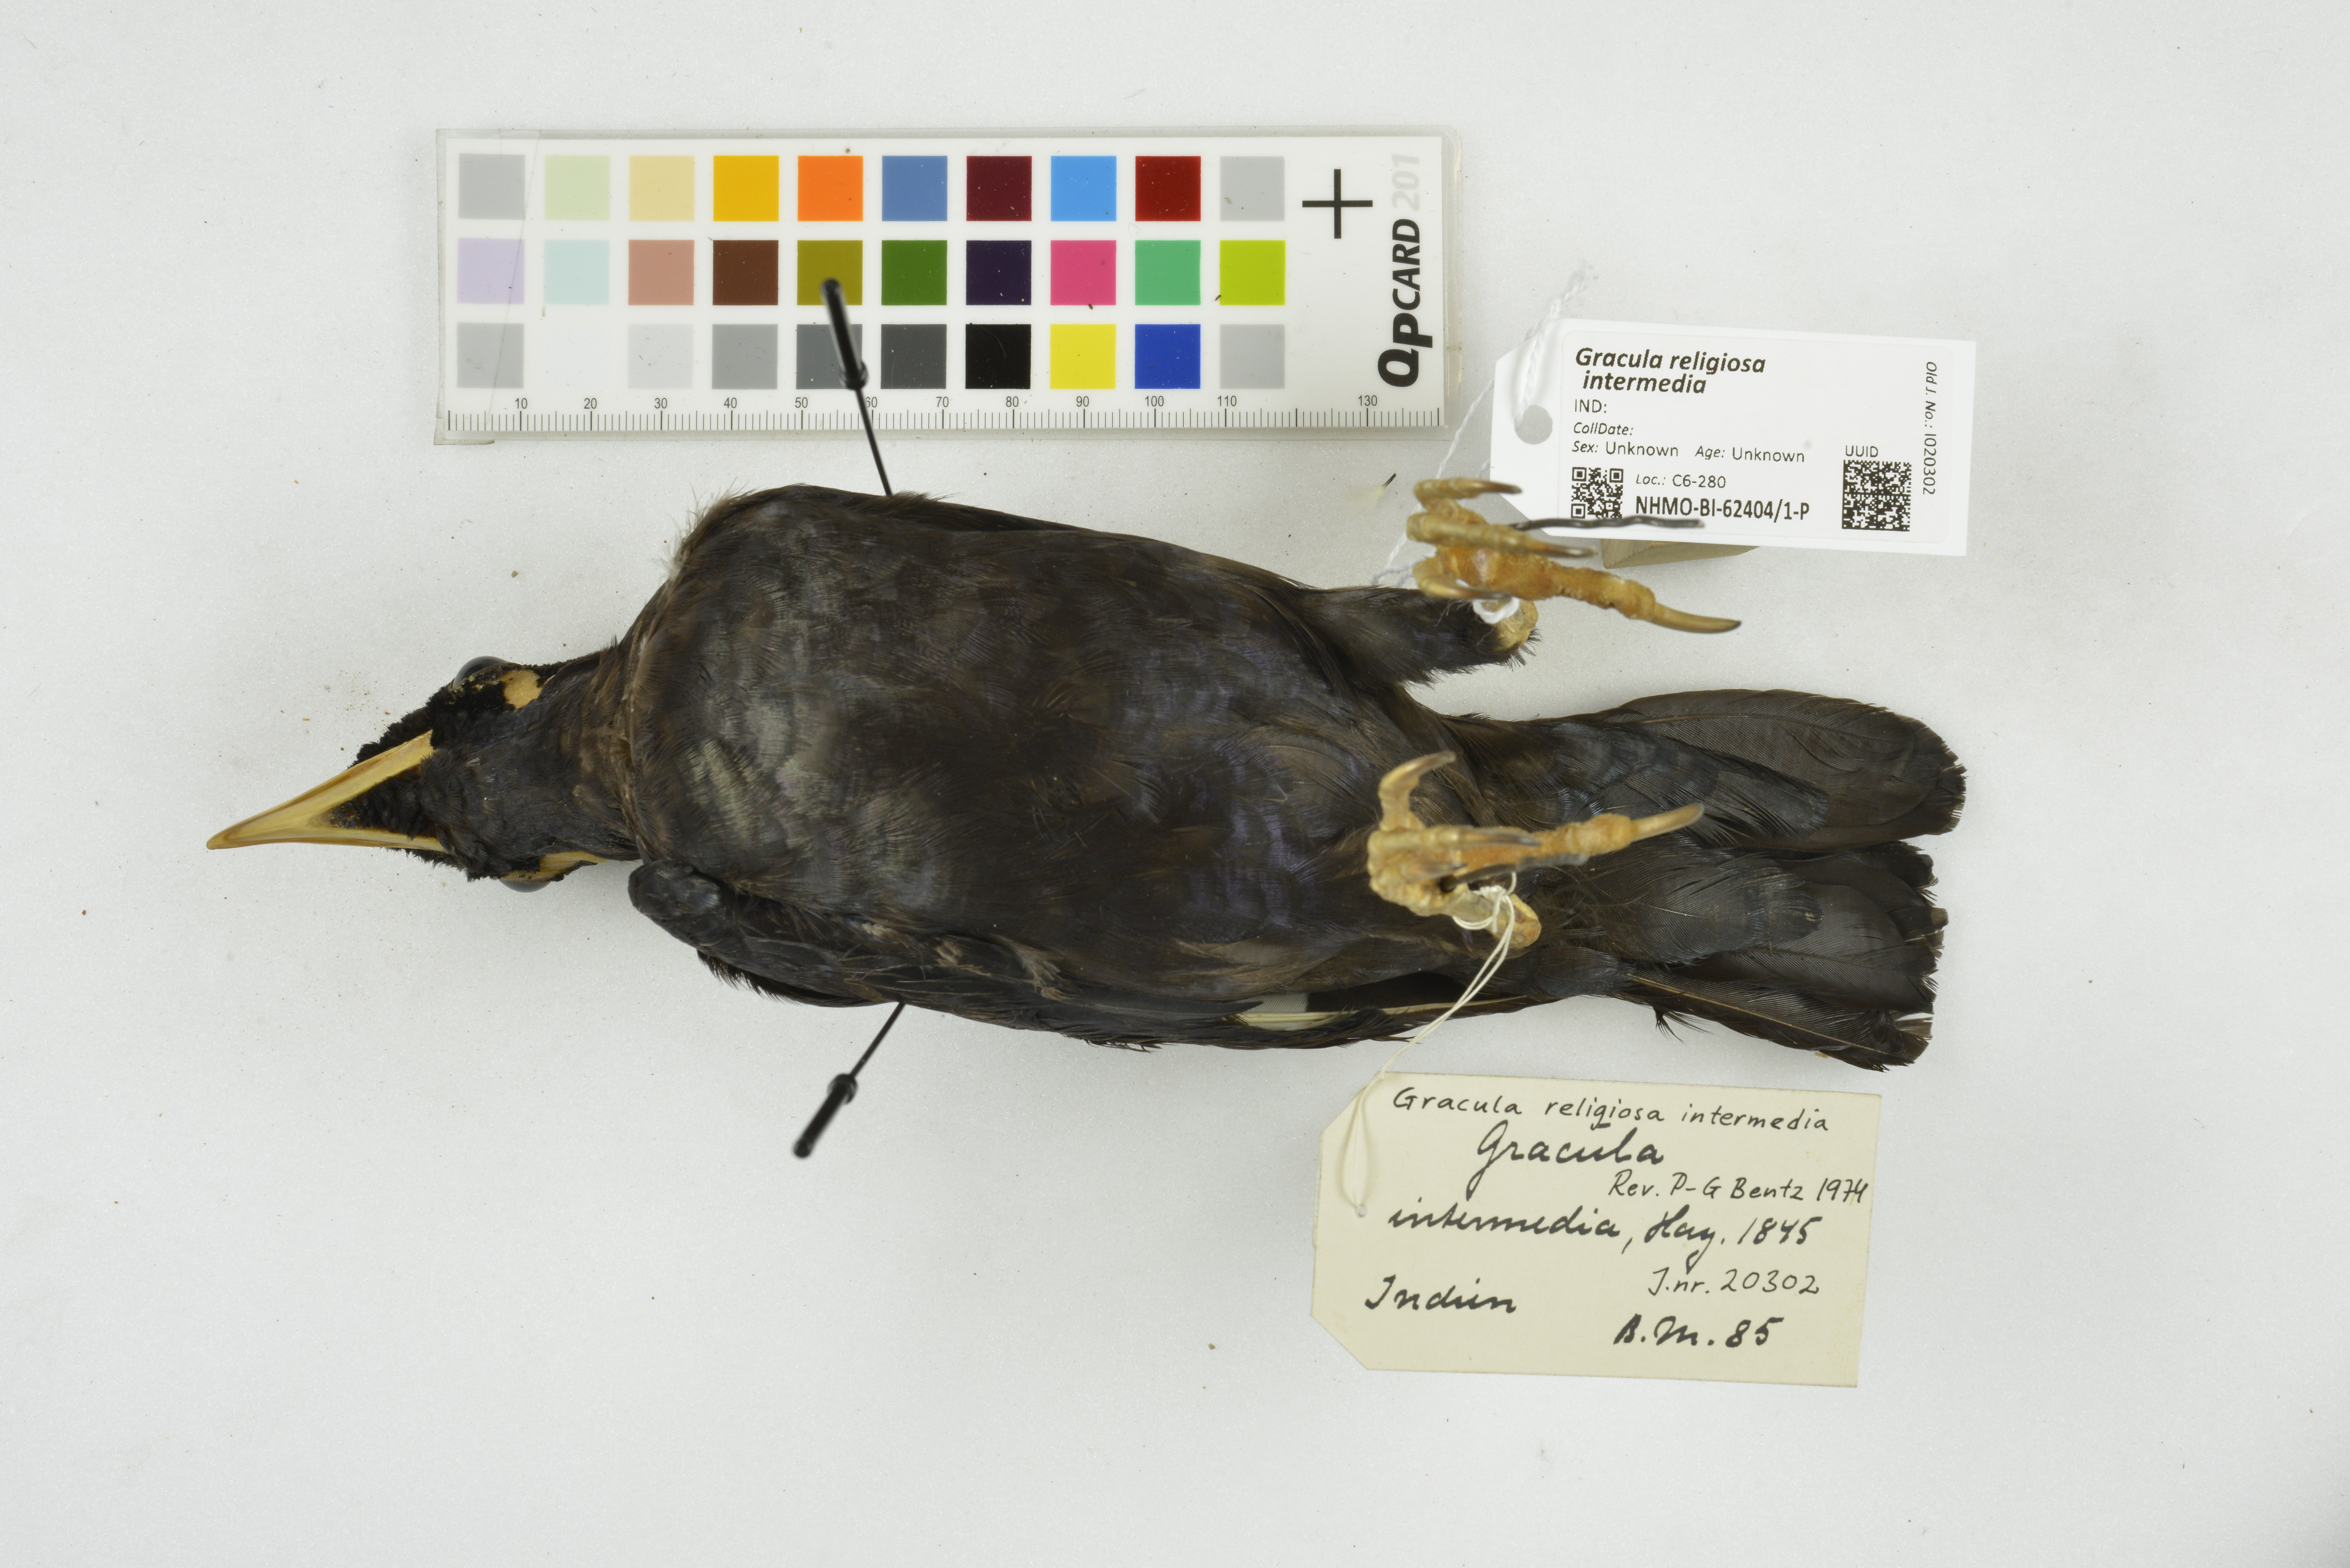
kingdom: Animalia
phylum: Chordata
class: Aves
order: Passeriformes
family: Sturnidae
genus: Gracula
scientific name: Gracula religiosa
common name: Common hill myna
